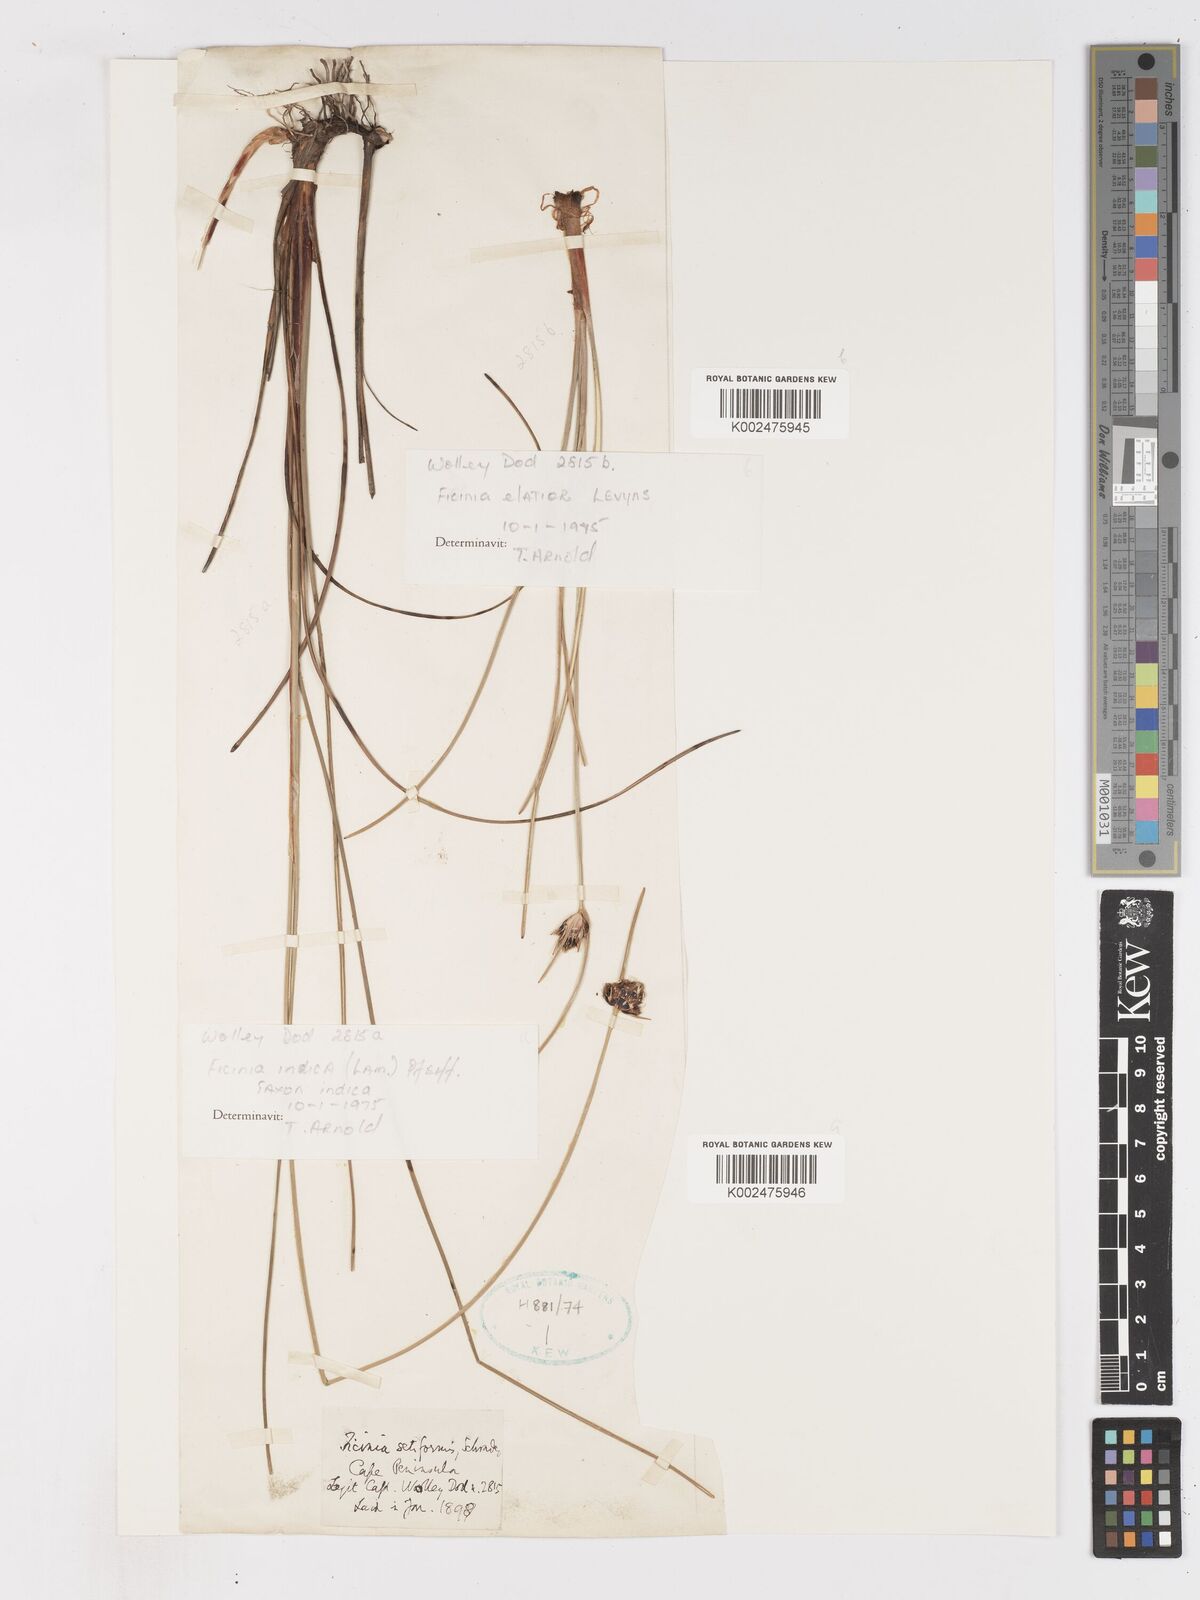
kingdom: Plantae
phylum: Tracheophyta
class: Liliopsida
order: Poales
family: Cyperaceae
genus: Ficinia
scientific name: Ficinia elatior
